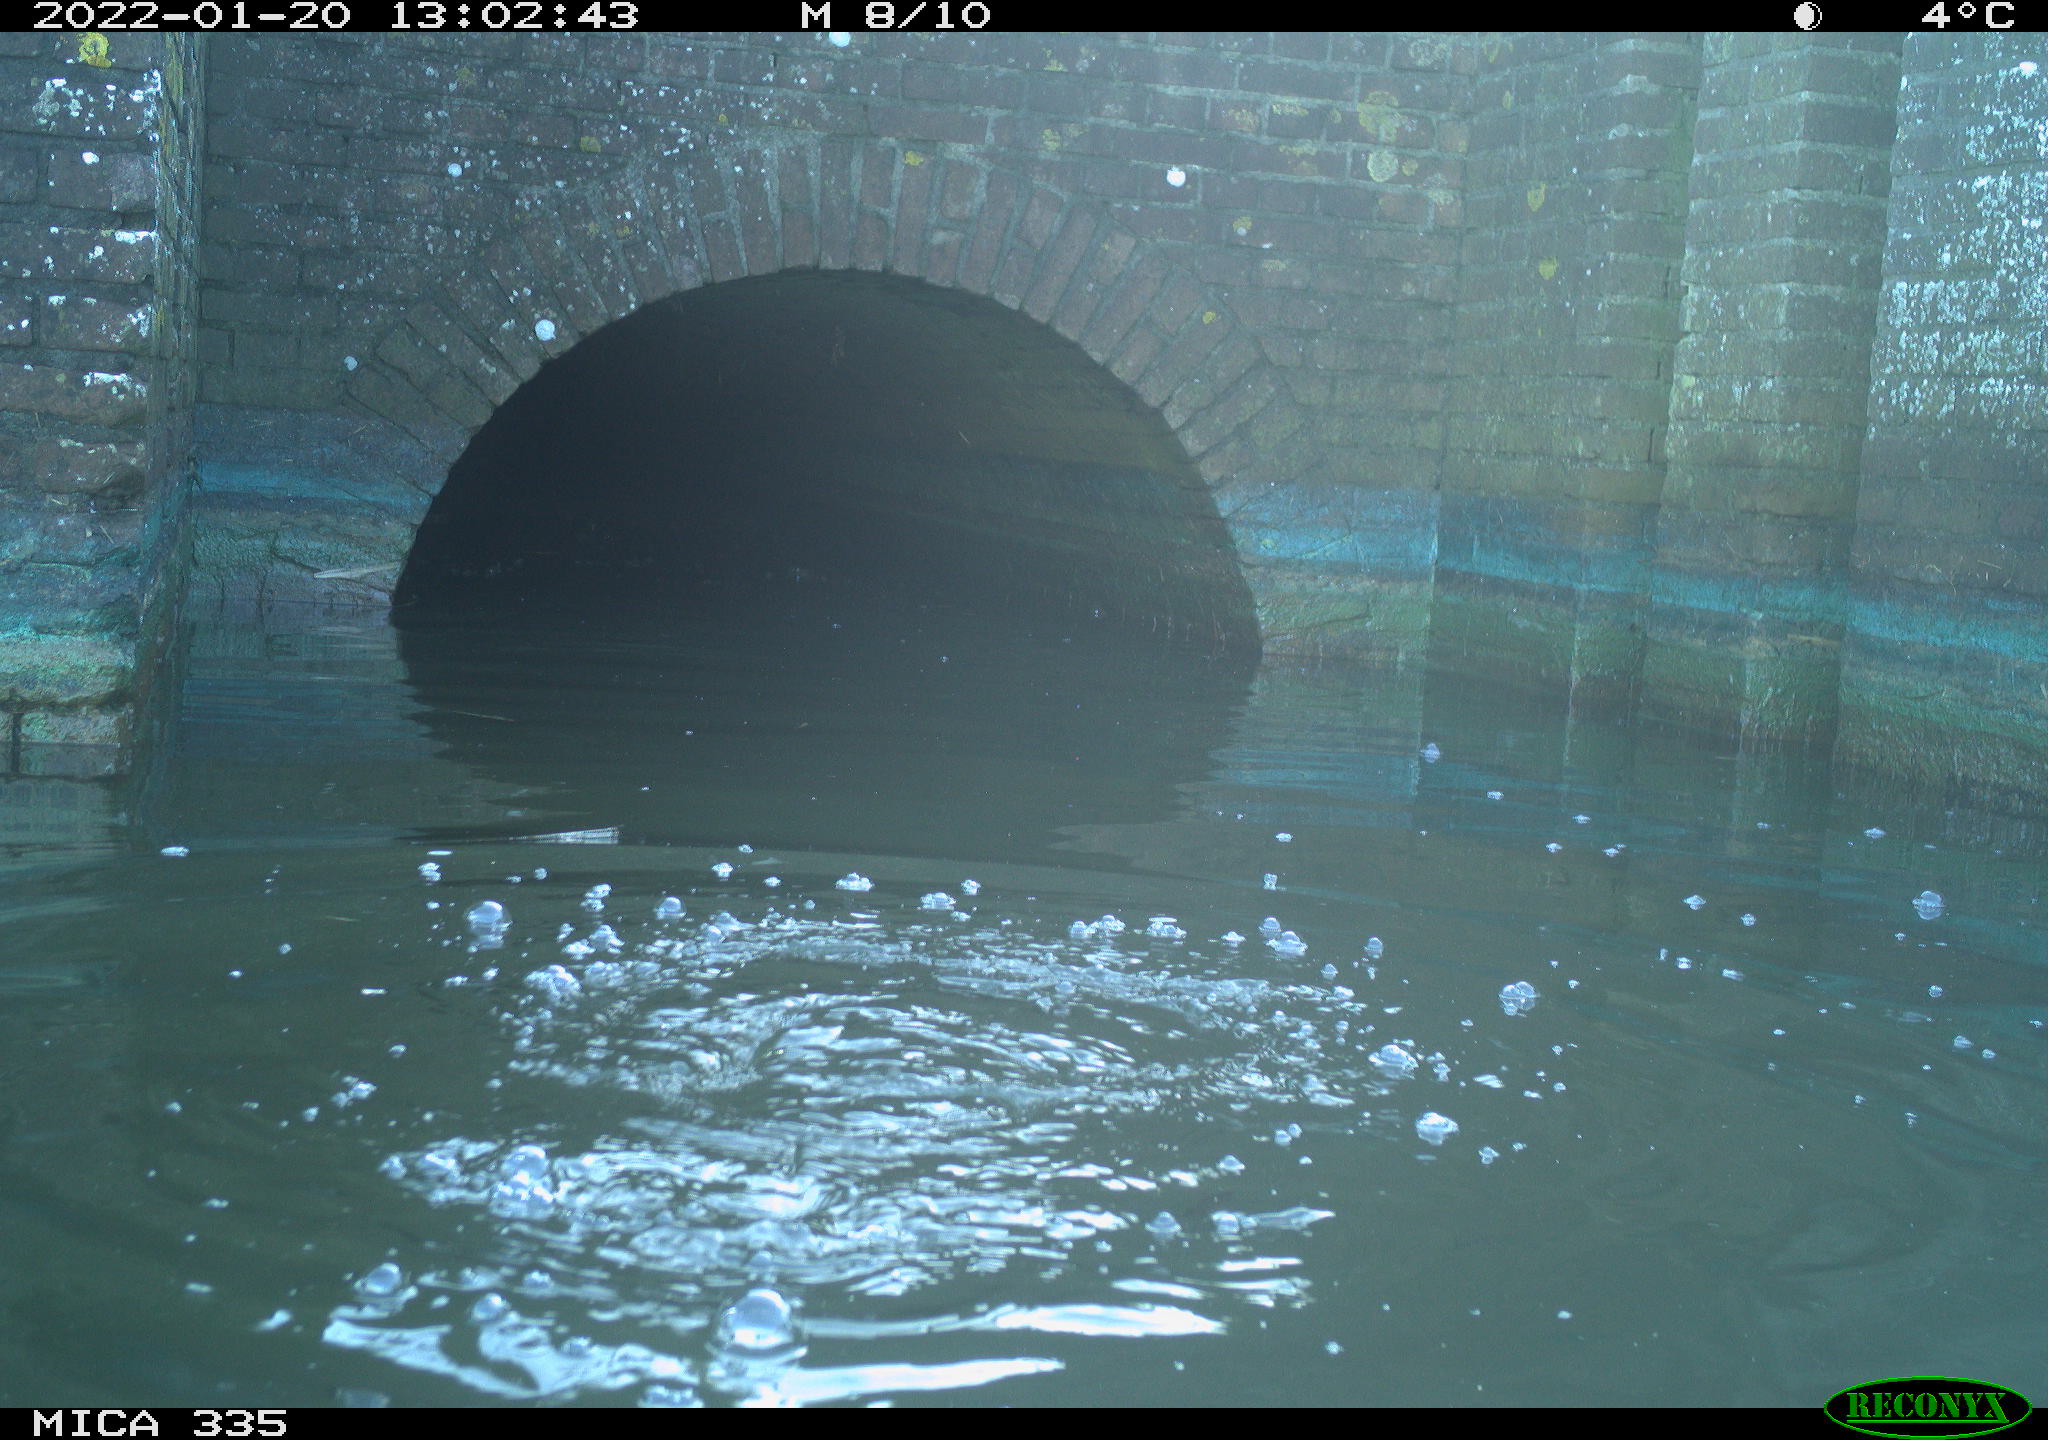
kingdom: Animalia
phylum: Chordata
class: Aves
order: Suliformes
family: Phalacrocoracidae
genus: Phalacrocorax
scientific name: Phalacrocorax carbo
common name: Great cormorant
